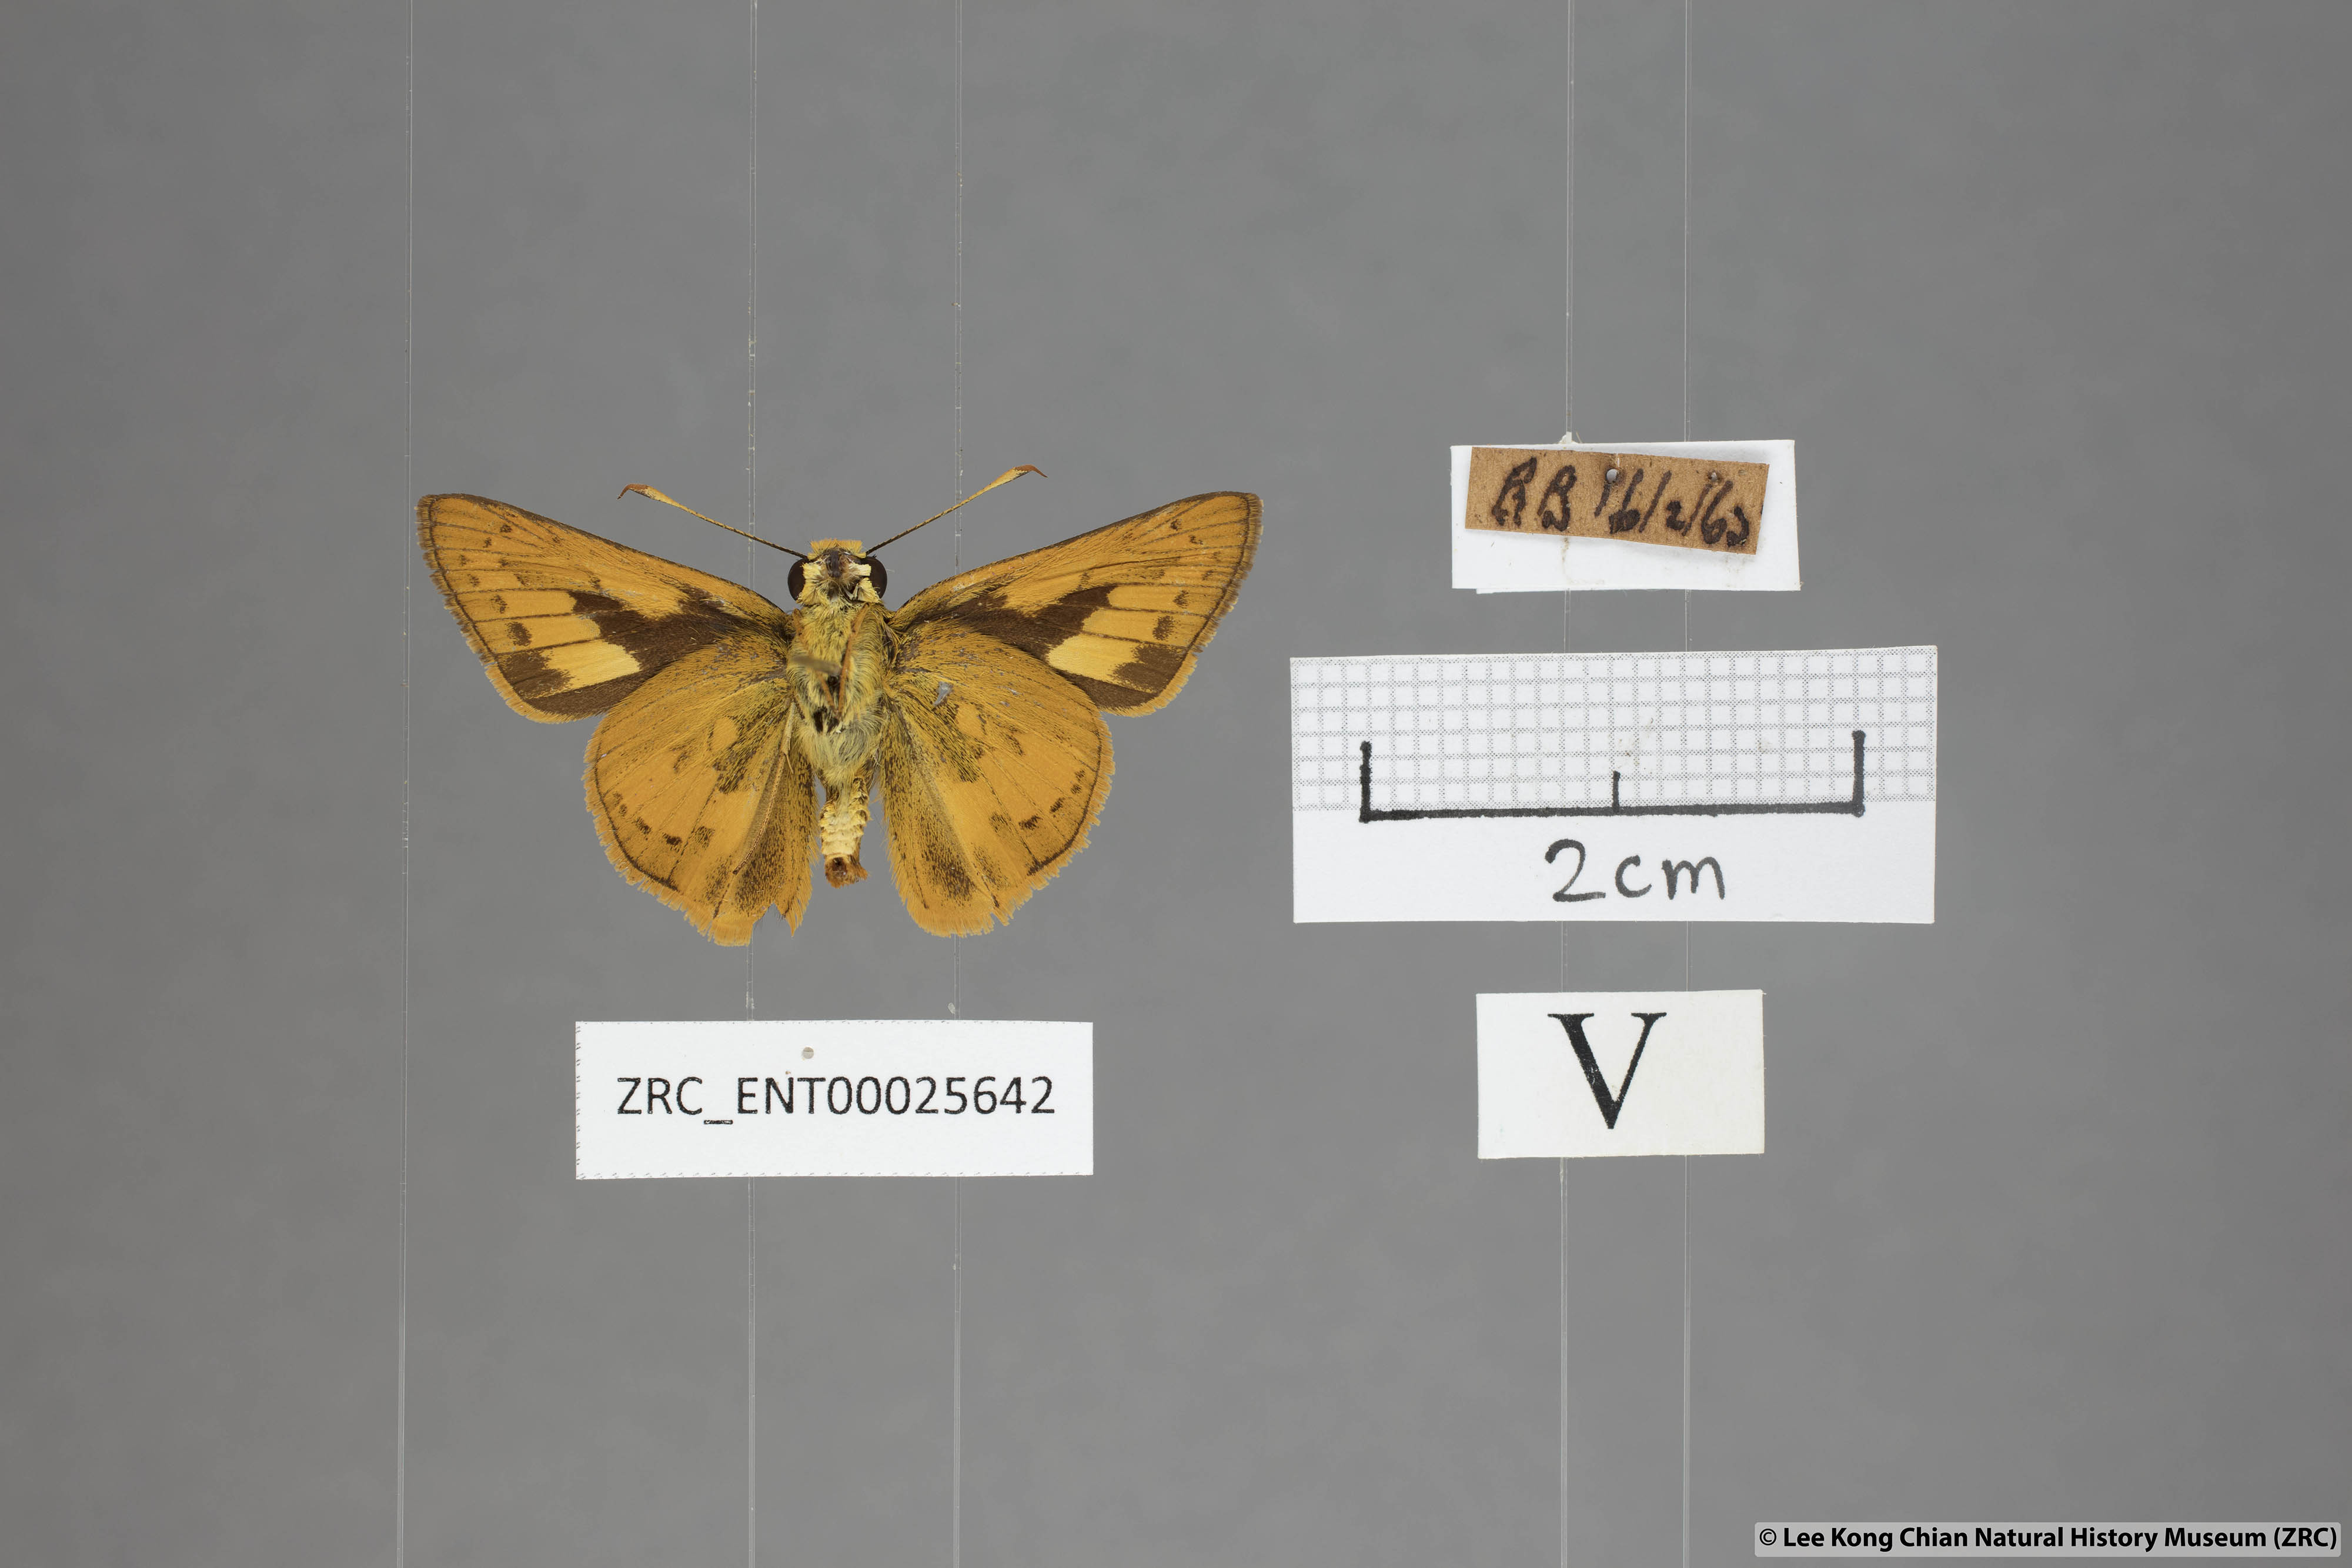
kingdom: Animalia
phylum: Arthropoda
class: Insecta
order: Lepidoptera
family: Hesperiidae
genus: Telicota
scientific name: Telicota besta
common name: Hainan palm dart
